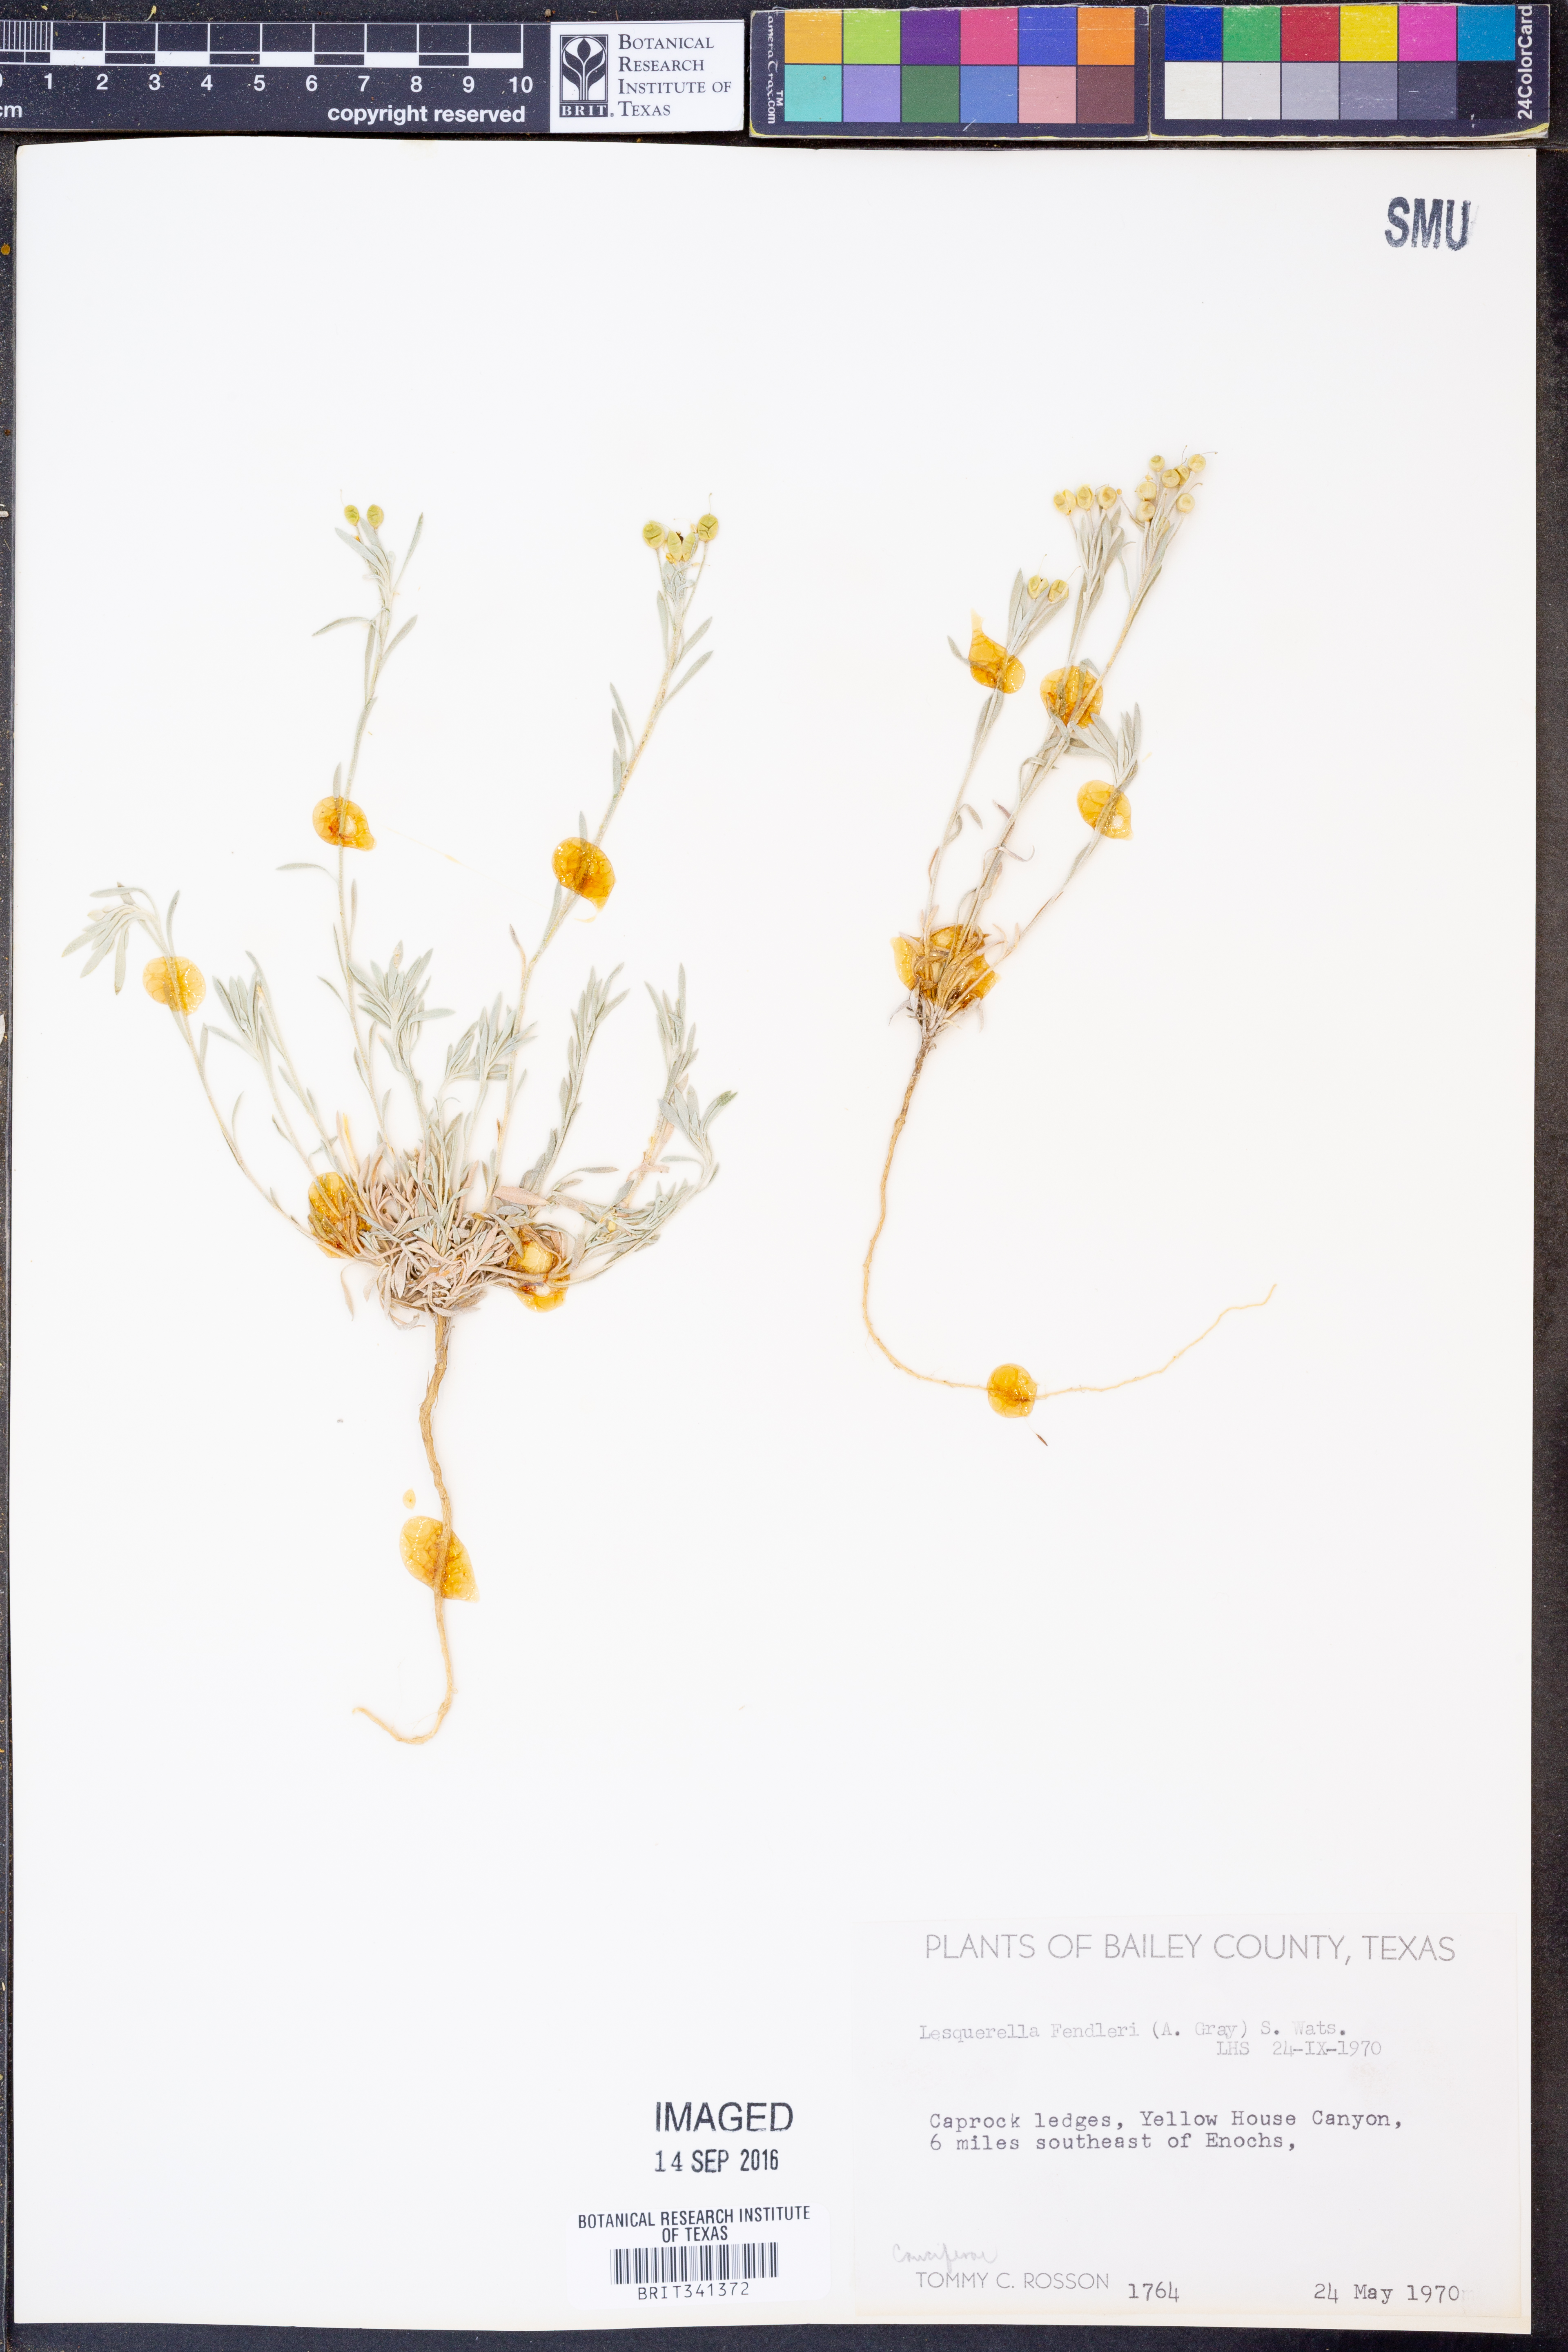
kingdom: Plantae
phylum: Tracheophyta
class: Magnoliopsida
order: Brassicales
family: Brassicaceae
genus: Physaria
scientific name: Physaria fendleri
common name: Fendler's bladderpod
